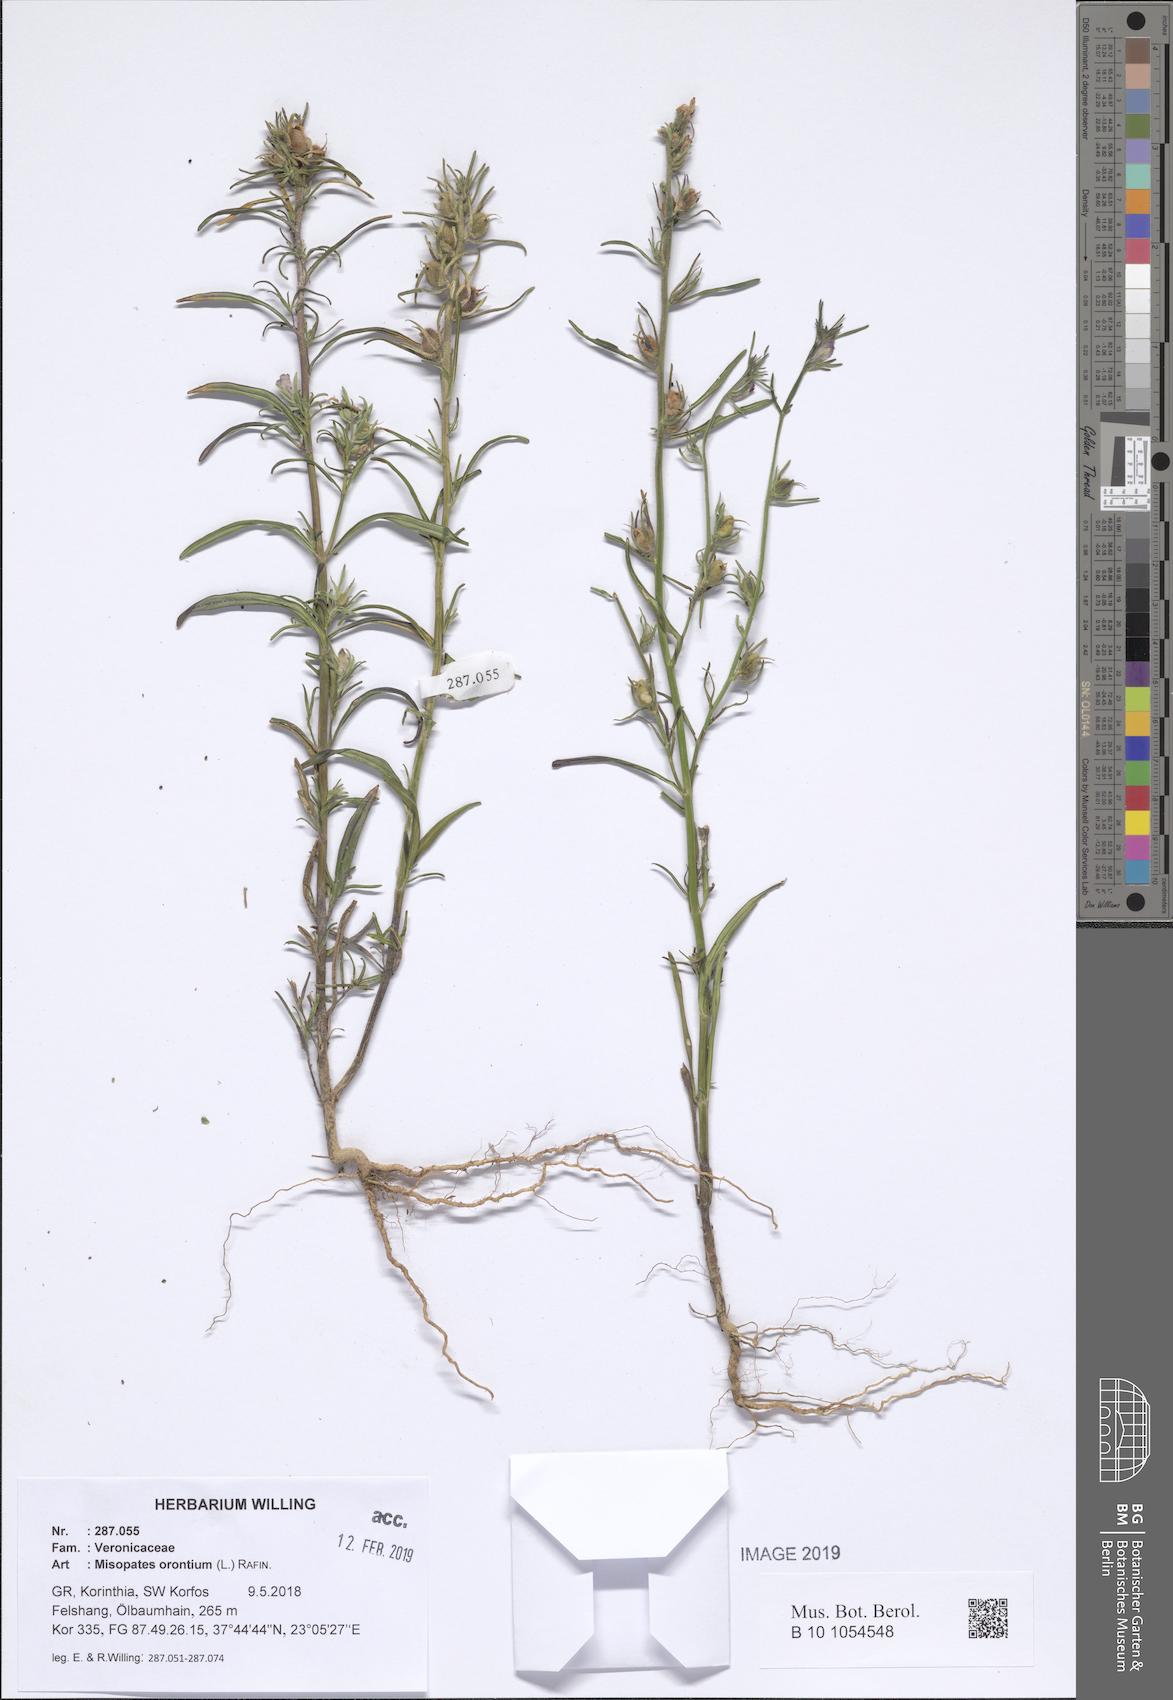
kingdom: Plantae
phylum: Tracheophyta
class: Magnoliopsida
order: Lamiales
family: Plantaginaceae
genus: Misopates
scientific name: Misopates orontium
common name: Weasel's-snout
